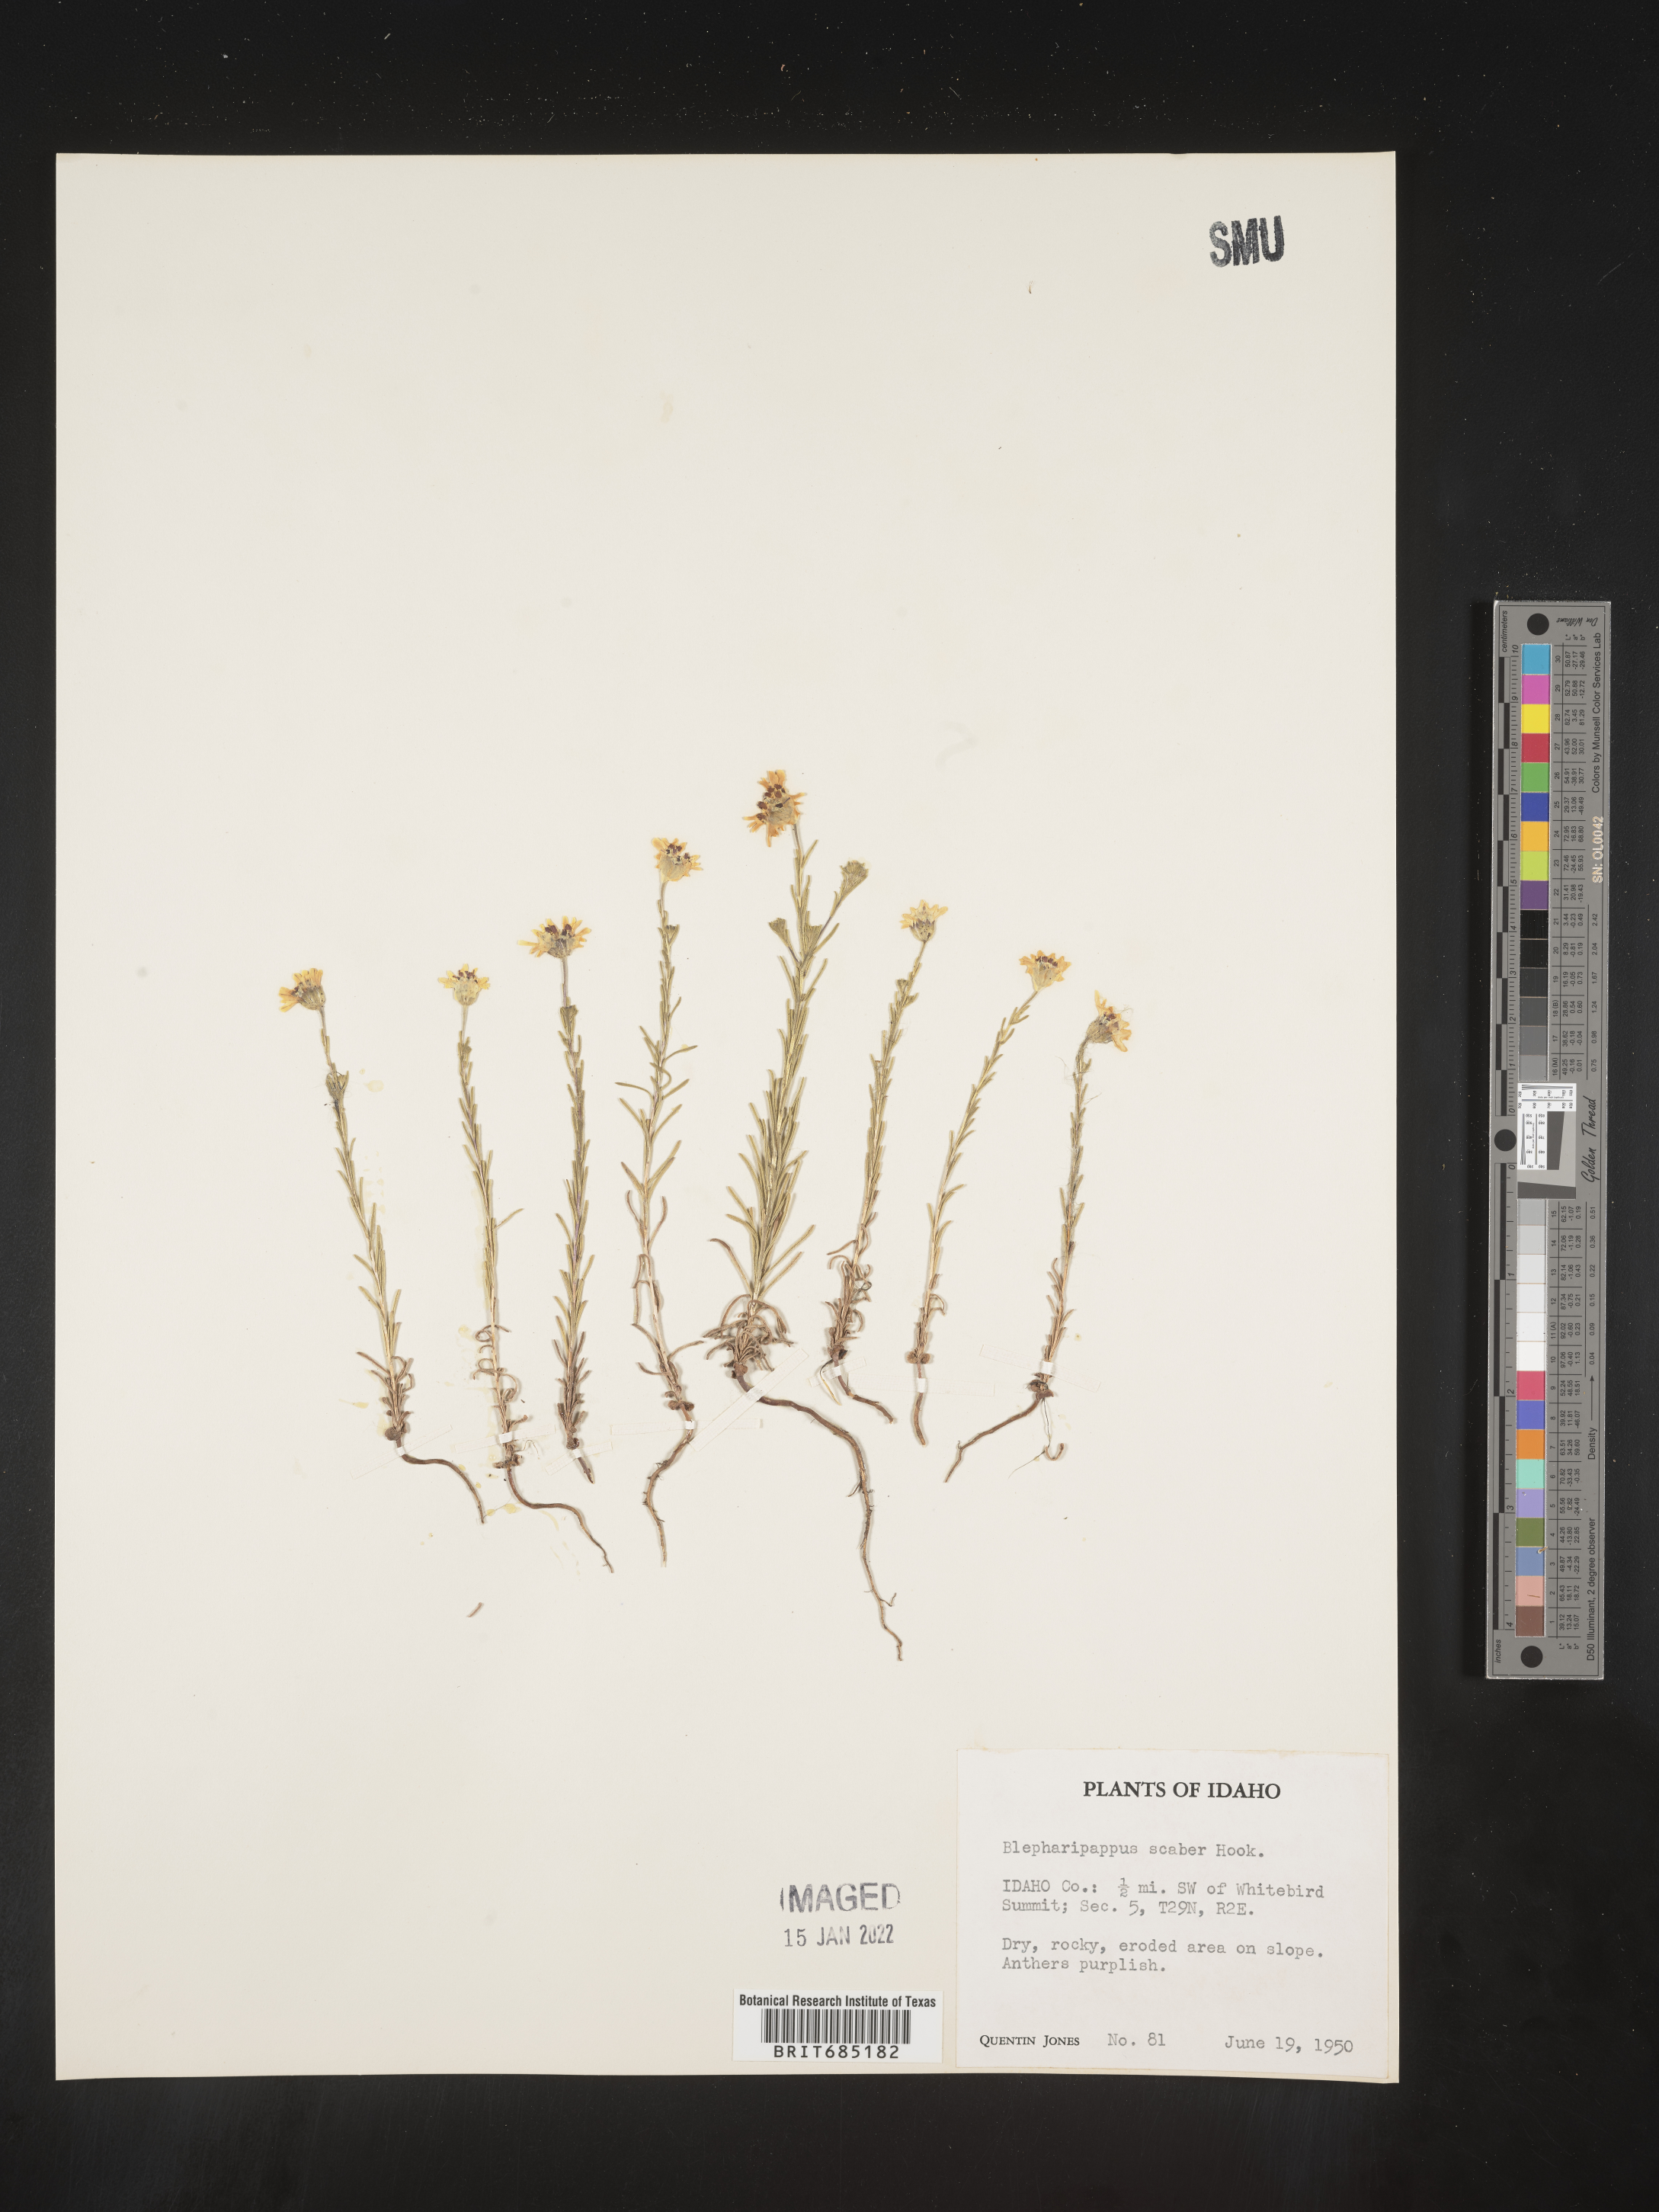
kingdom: Plantae
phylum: Tracheophyta
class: Magnoliopsida
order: Asterales
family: Asteraceae
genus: Blepharipappus
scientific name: Blepharipappus
